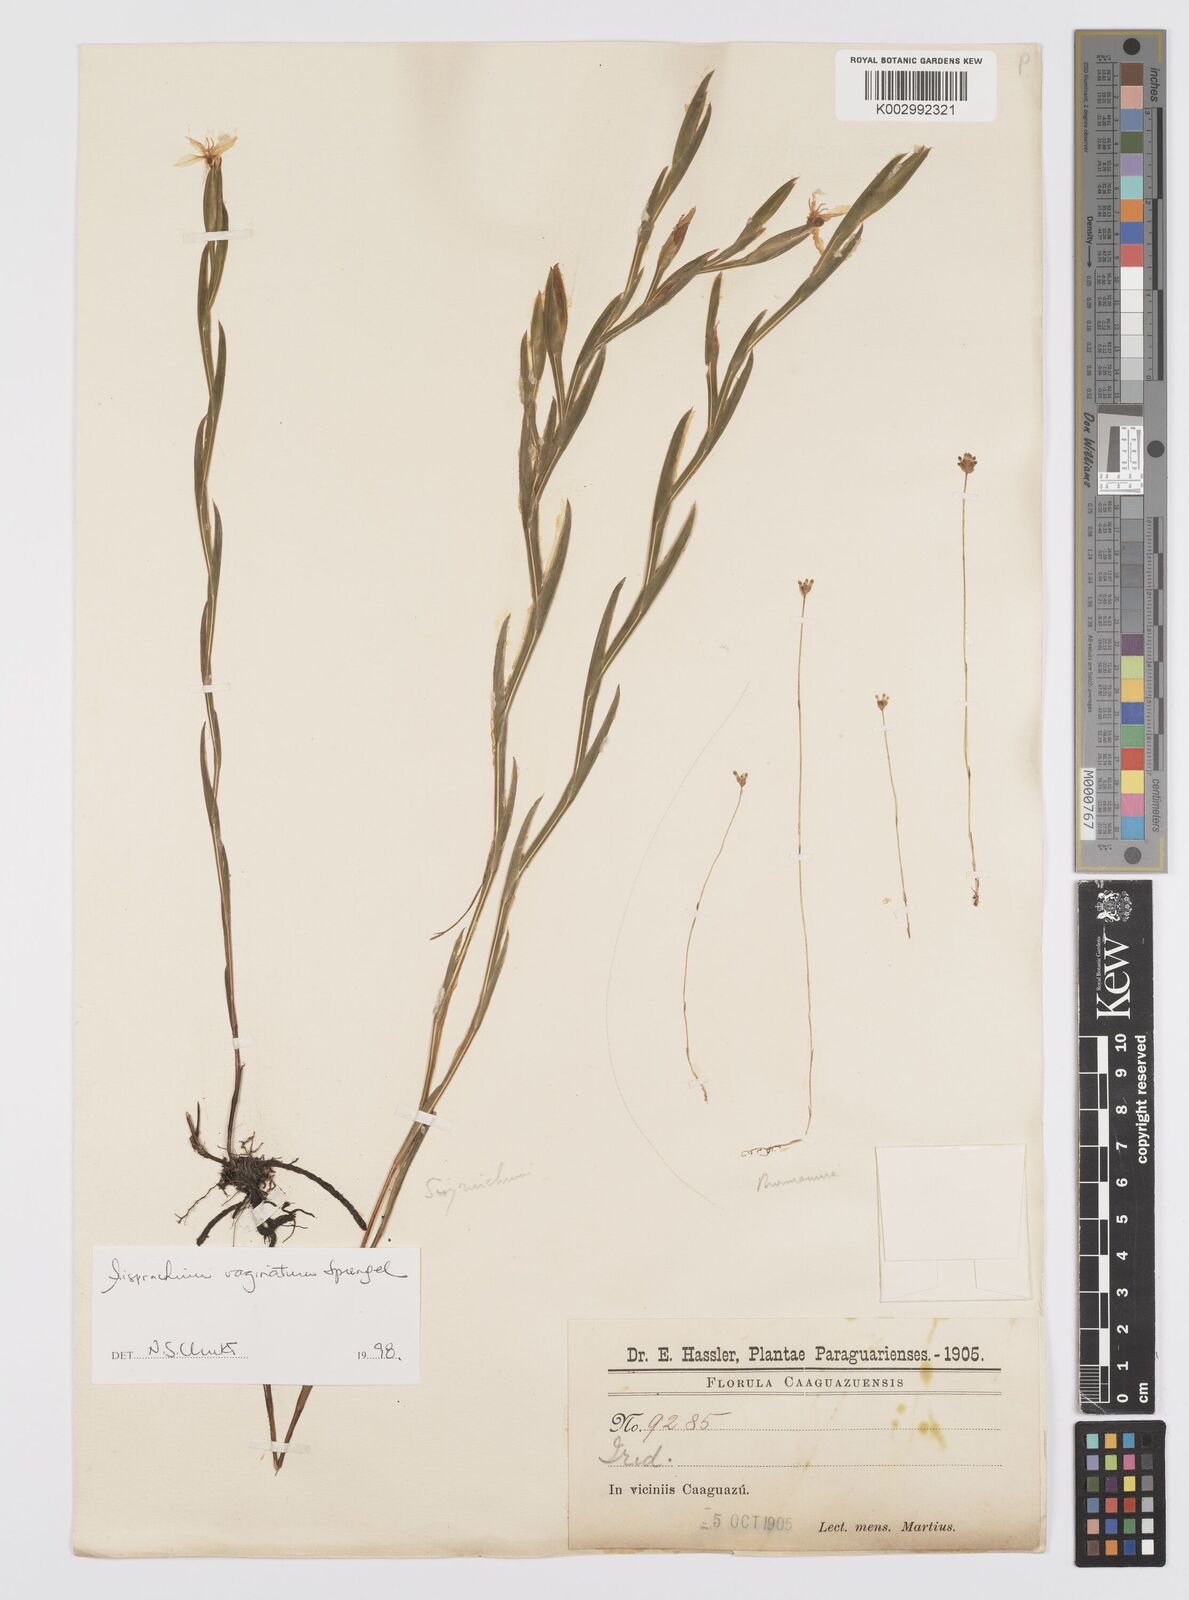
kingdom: Plantae
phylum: Tracheophyta
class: Liliopsida
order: Asparagales
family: Iridaceae
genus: Sisyrinchium
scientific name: Sisyrinchium vaginatum
